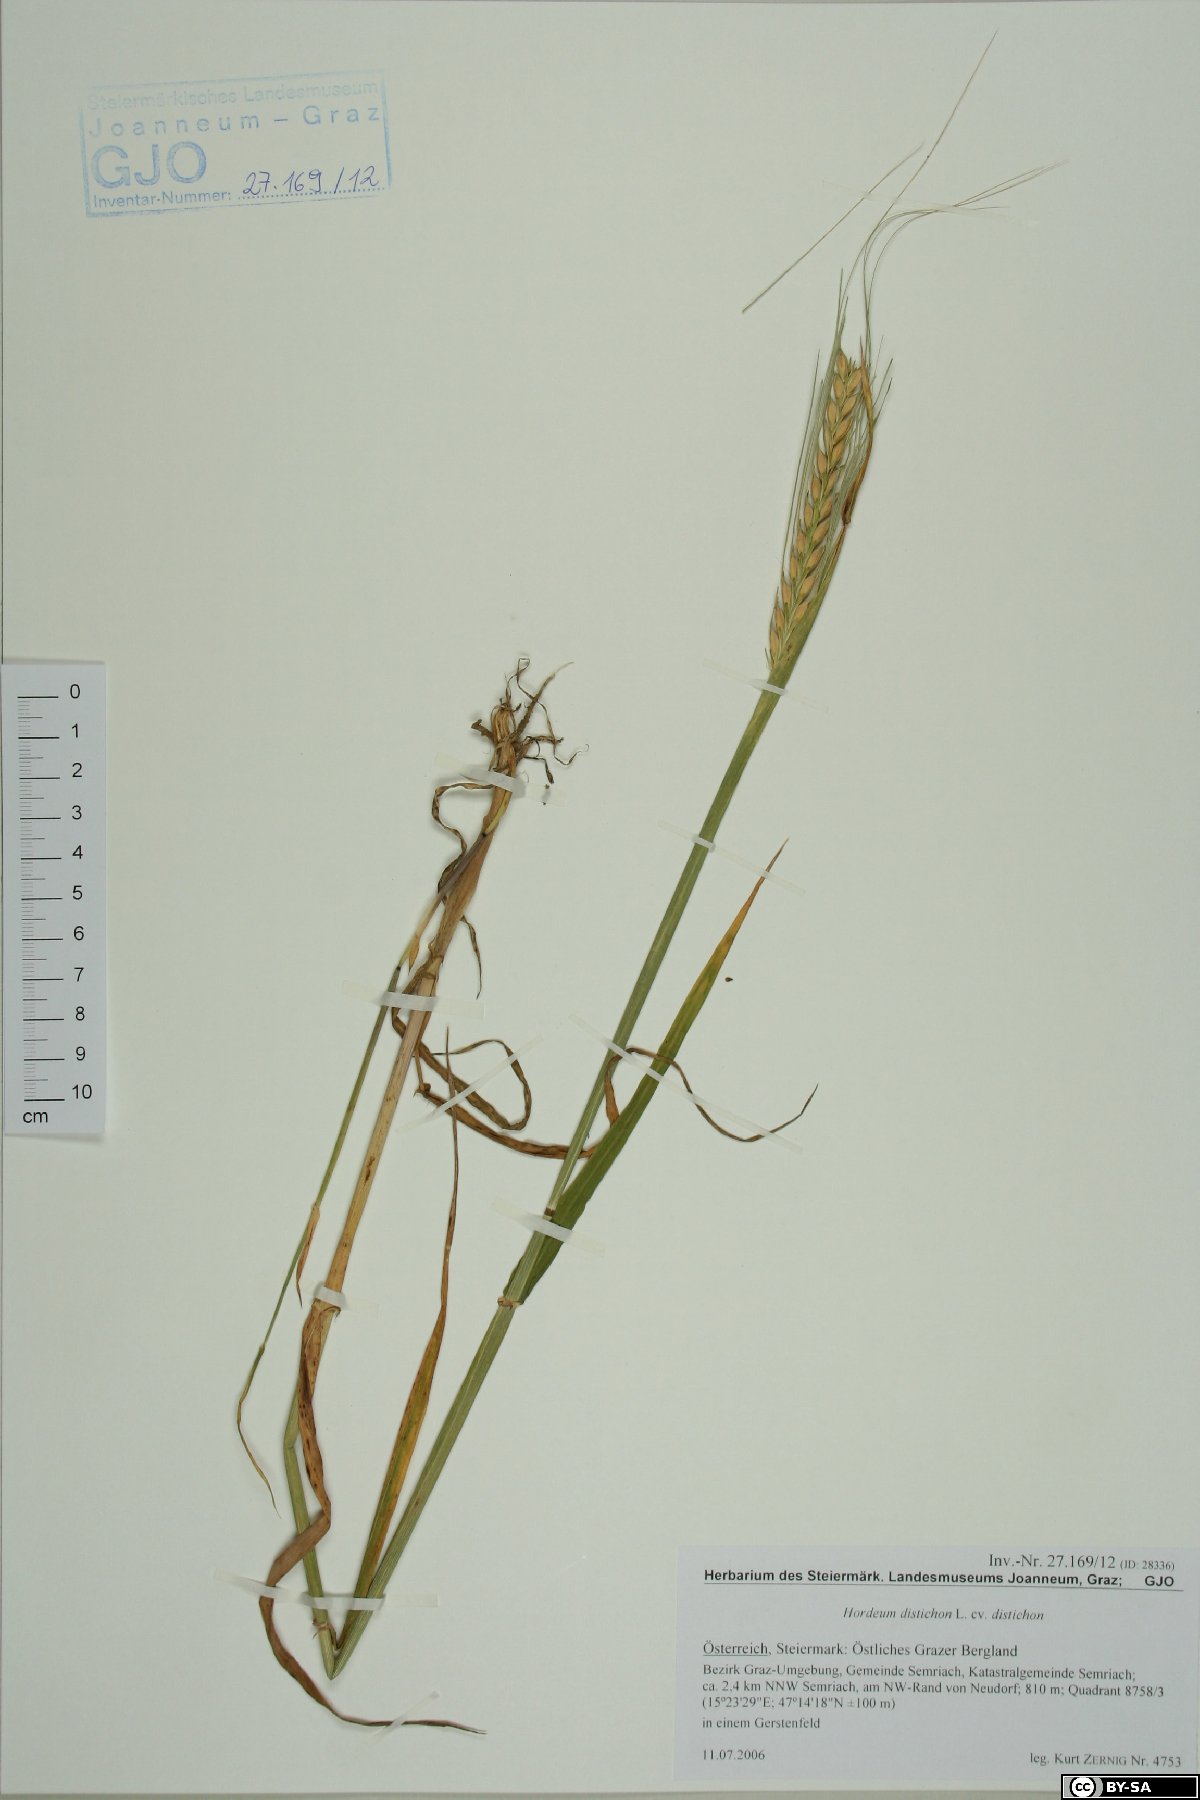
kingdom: Plantae
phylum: Tracheophyta
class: Liliopsida
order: Poales
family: Poaceae
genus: Hordeum
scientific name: Hordeum distichon
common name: Two-rowed barley
